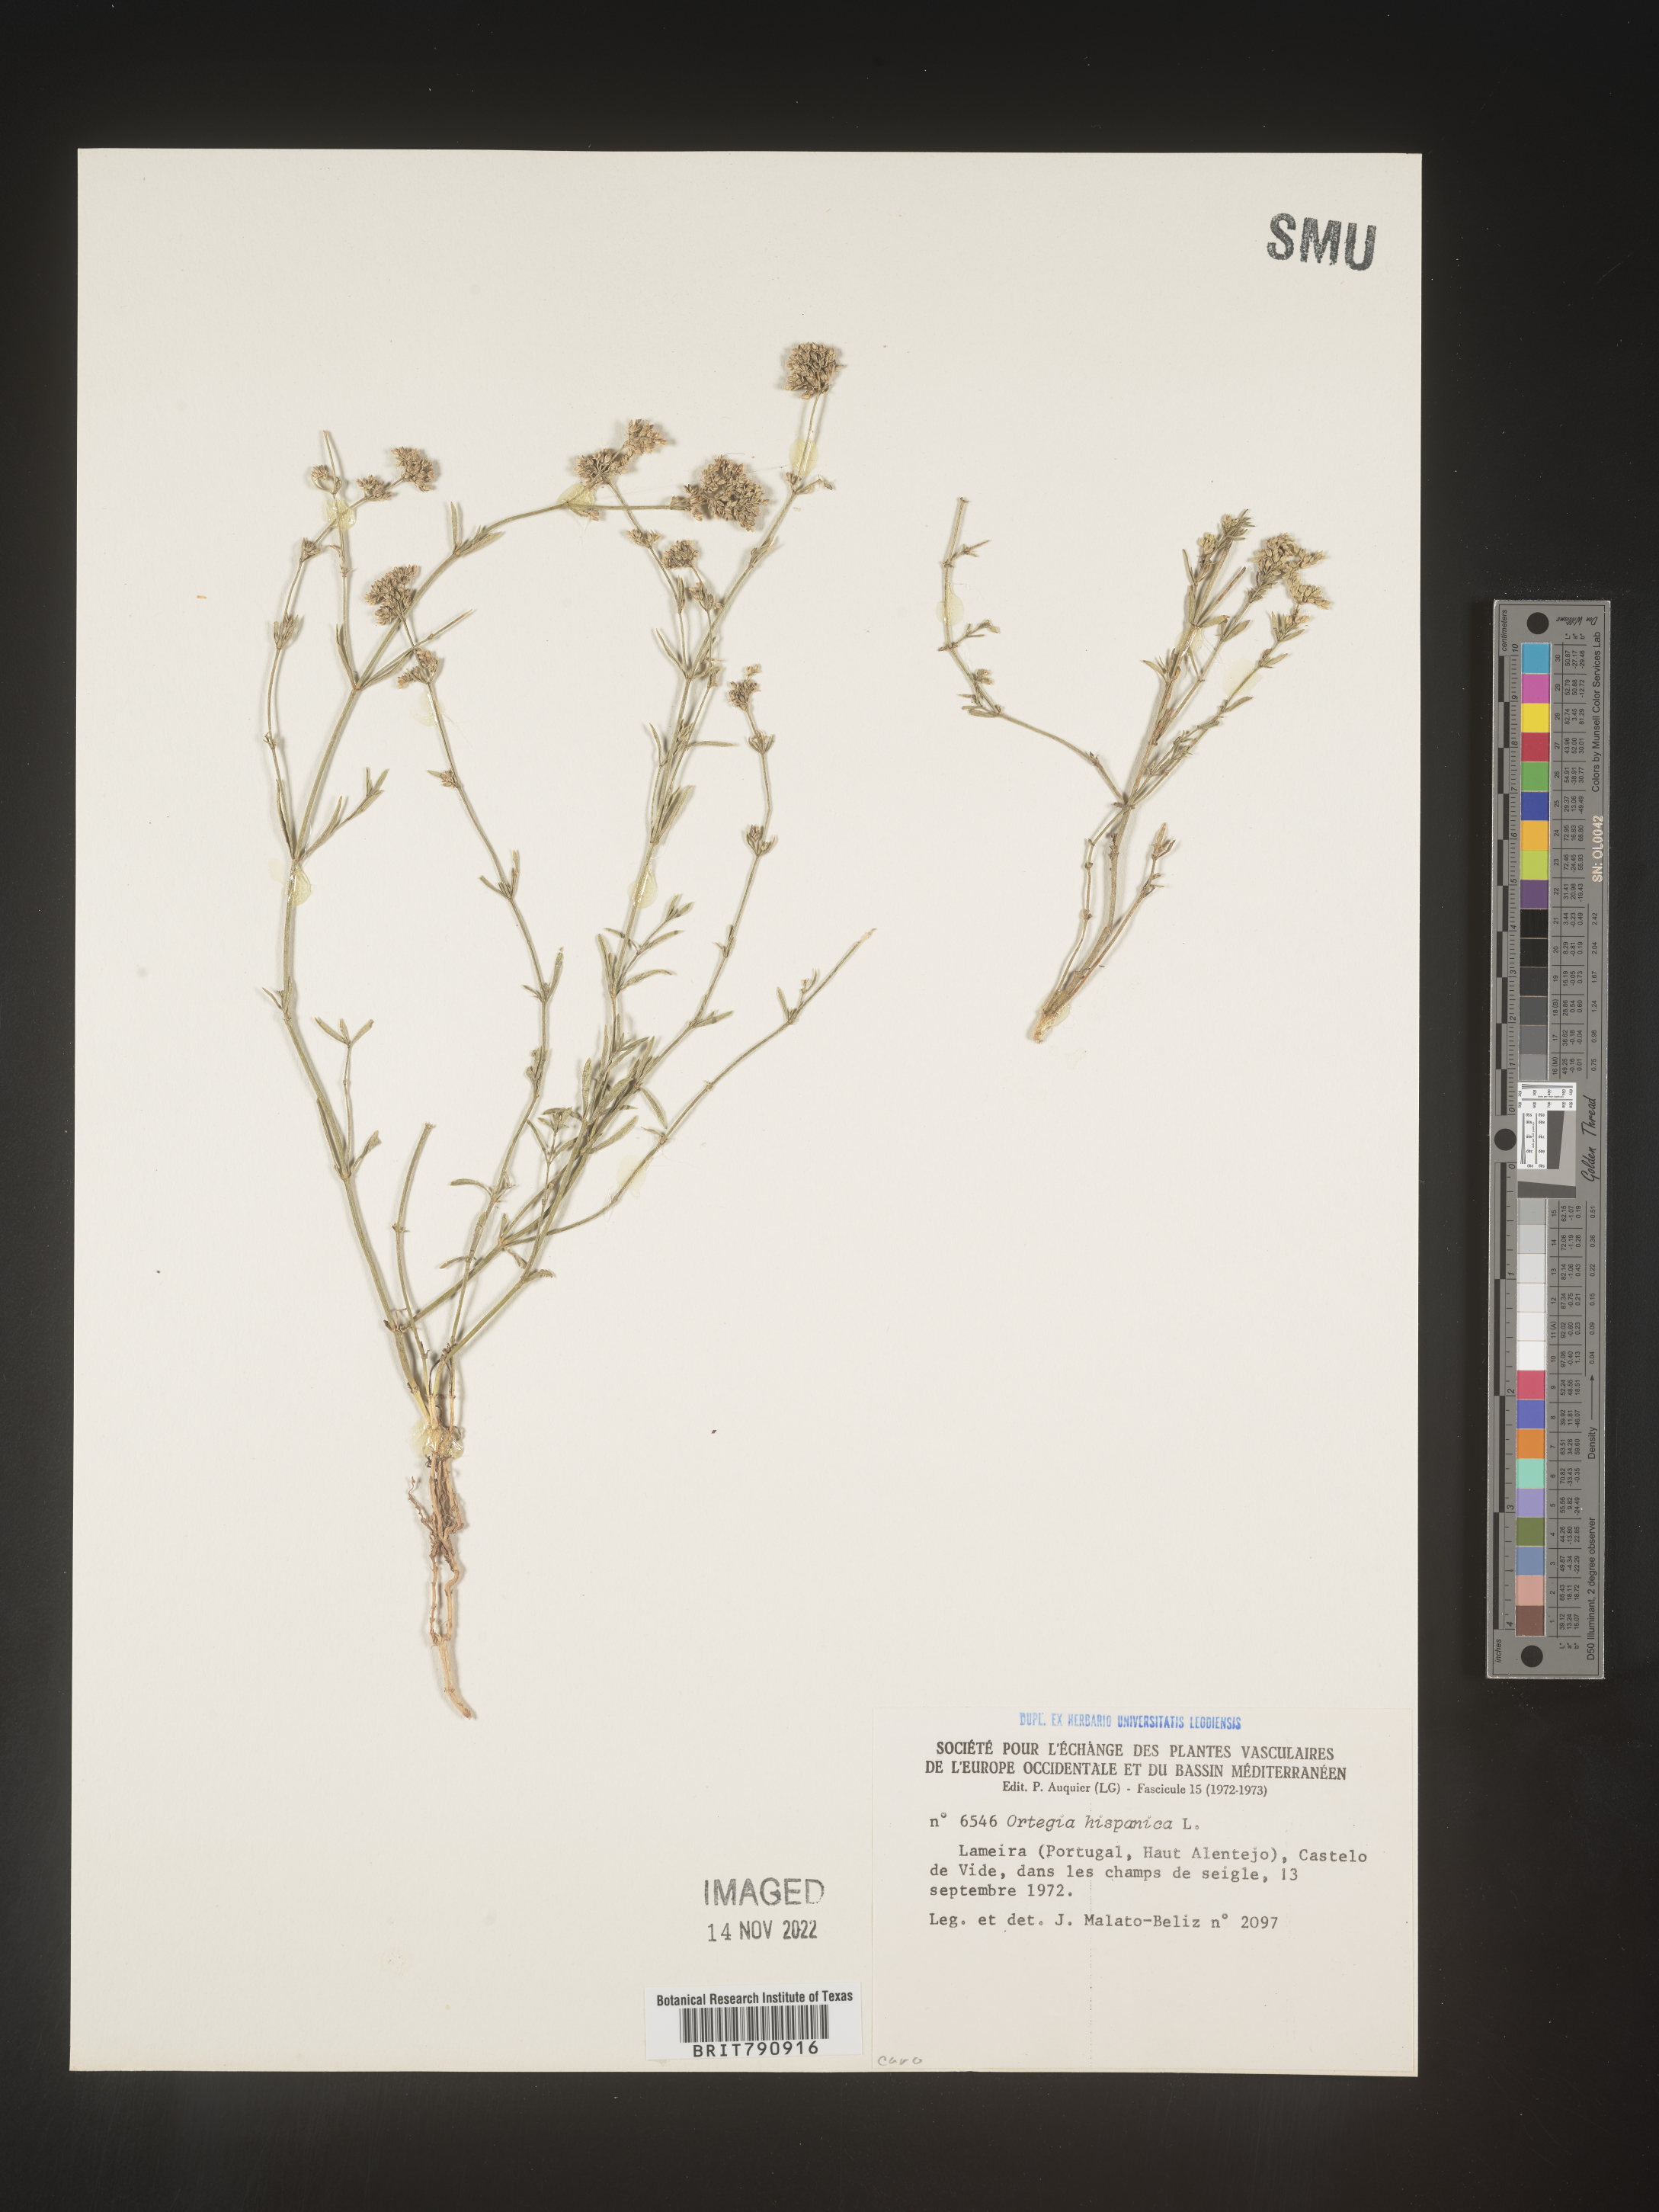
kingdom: Plantae
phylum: Tracheophyta
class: Magnoliopsida
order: Caryophyllales
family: Caryophyllaceae
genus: Ortegia
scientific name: Ortegia
